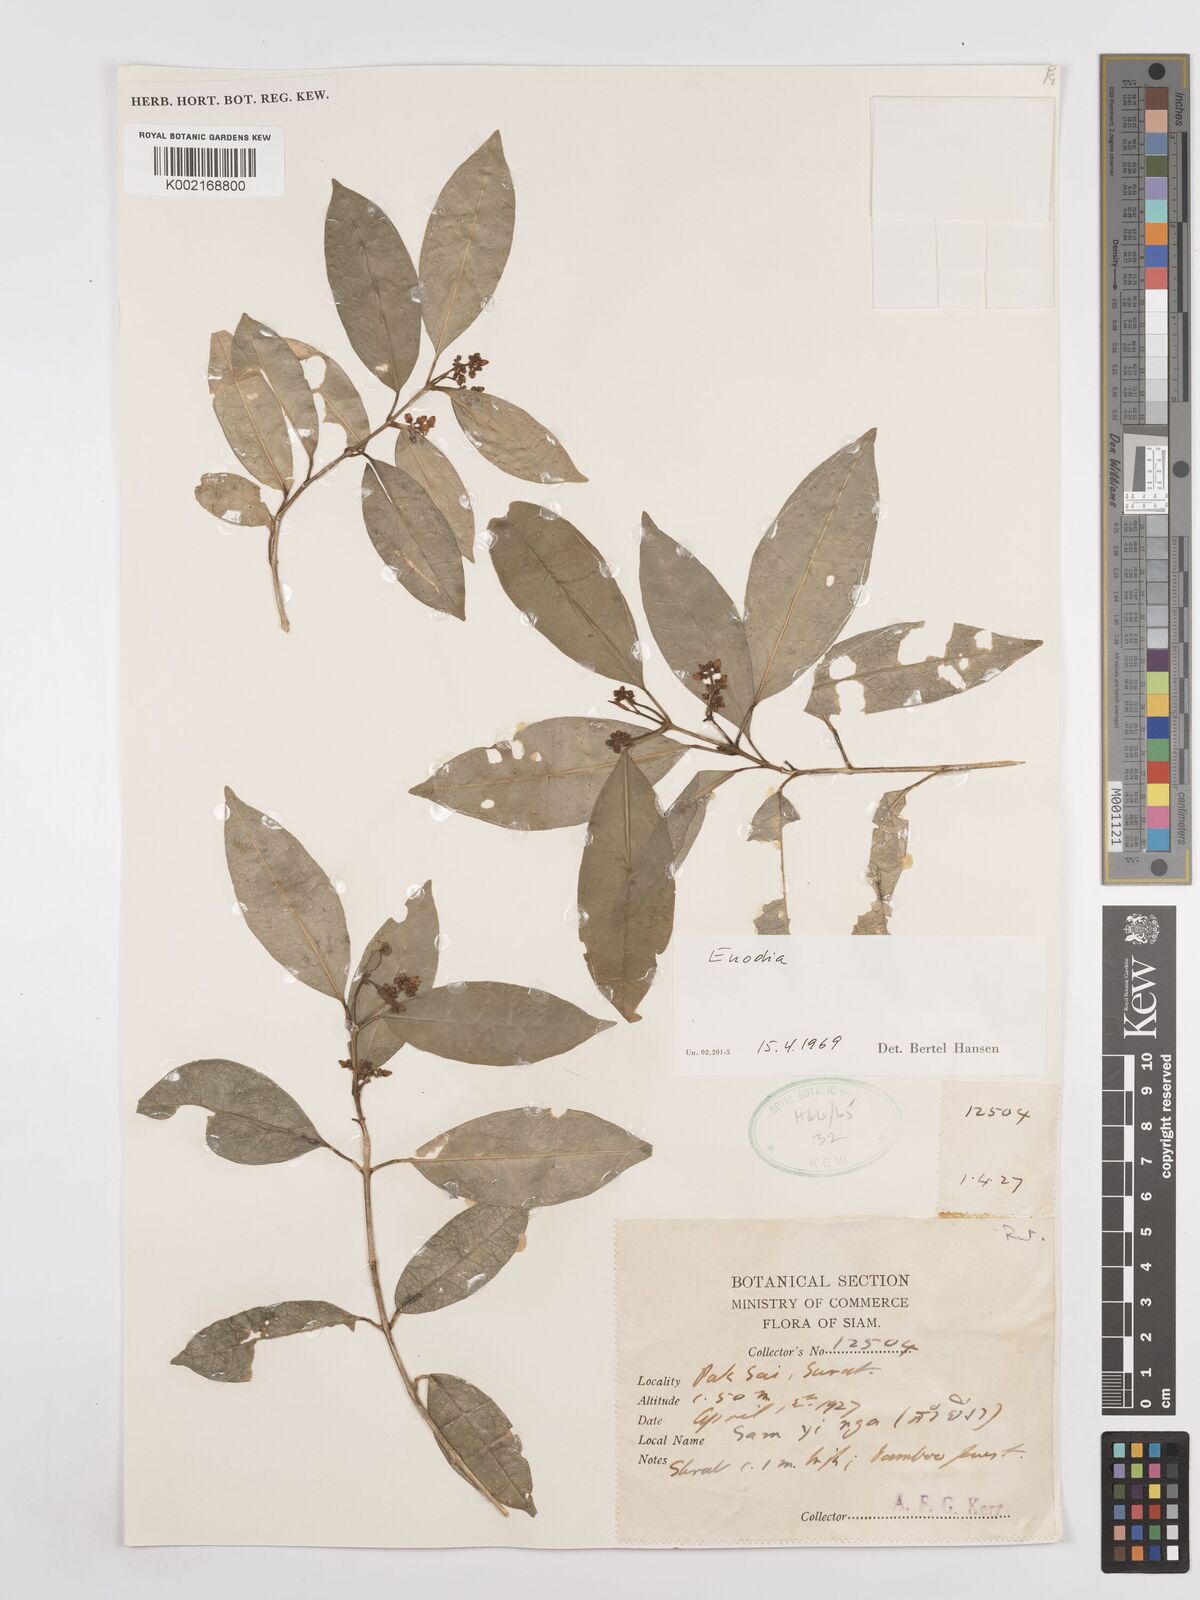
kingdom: Plantae
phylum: Tracheophyta
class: Magnoliopsida
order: Sapindales
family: Rutaceae
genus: Euodia
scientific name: Euodia
